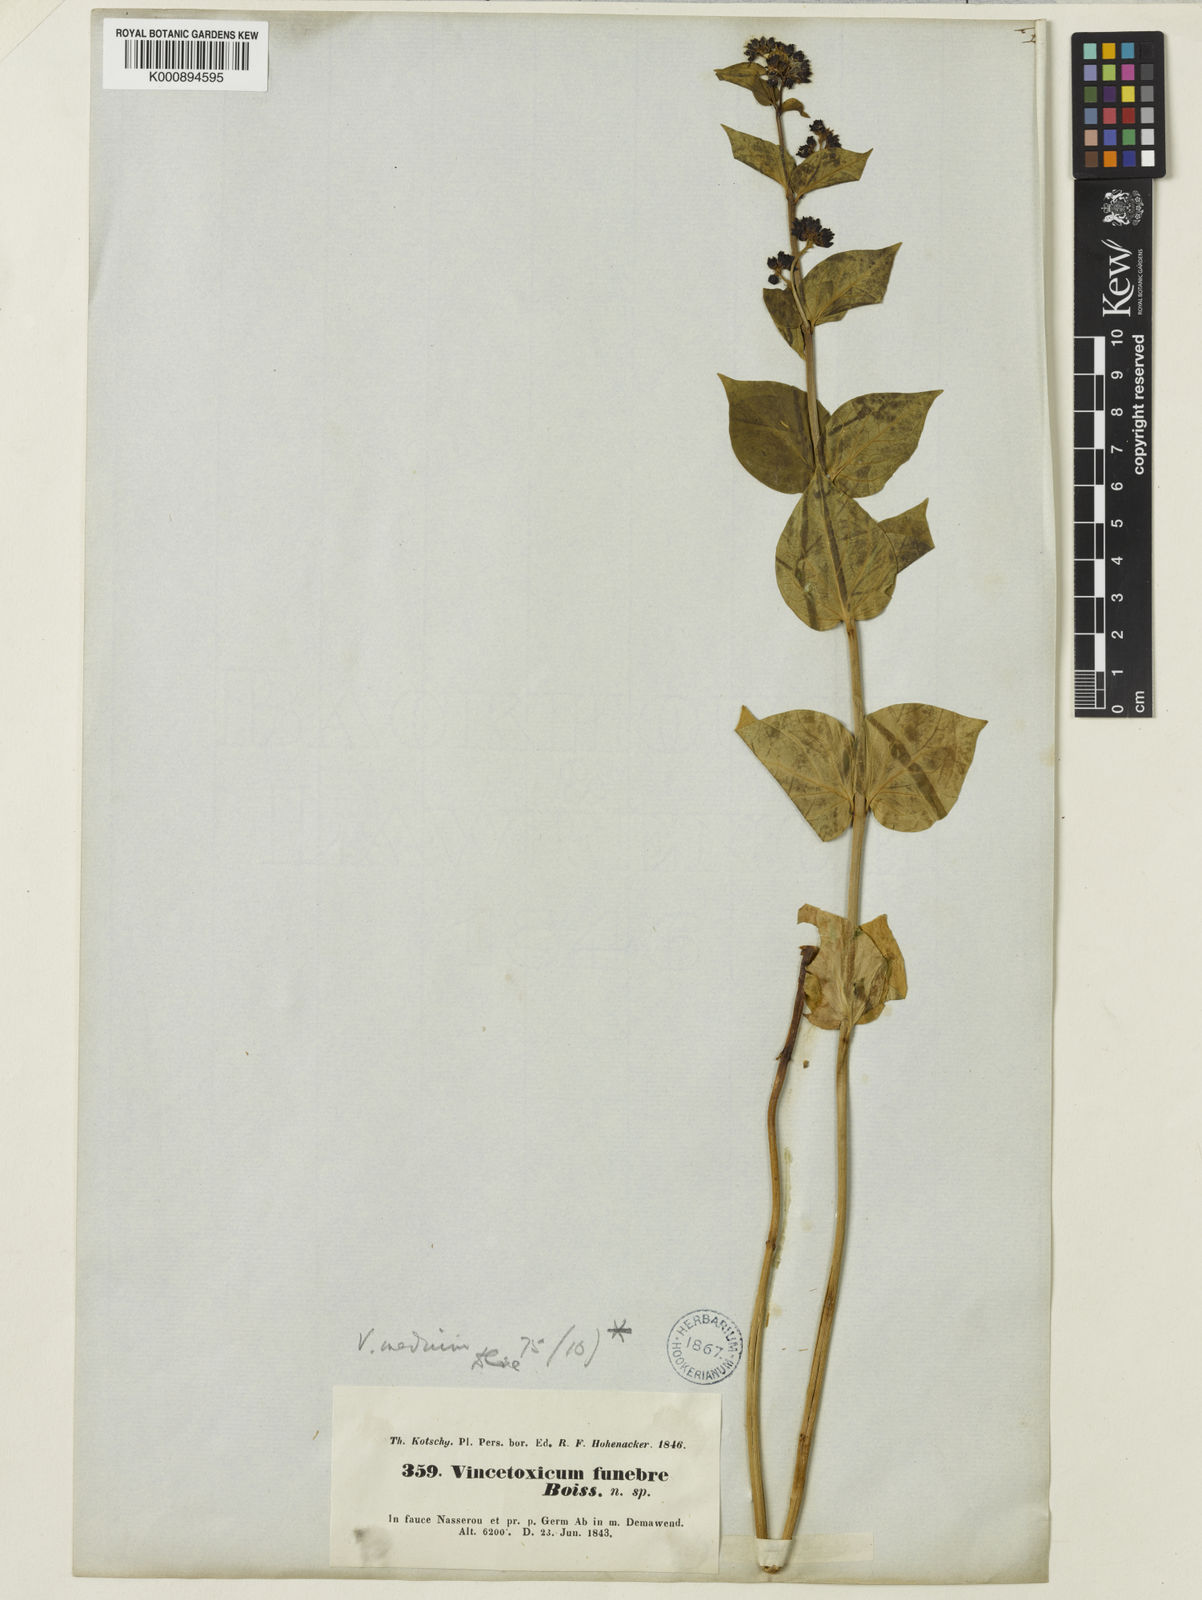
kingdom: Plantae
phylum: Tracheophyta
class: Magnoliopsida
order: Gentianales
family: Apocynaceae
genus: Vincetoxicum
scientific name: Vincetoxicum funebre
